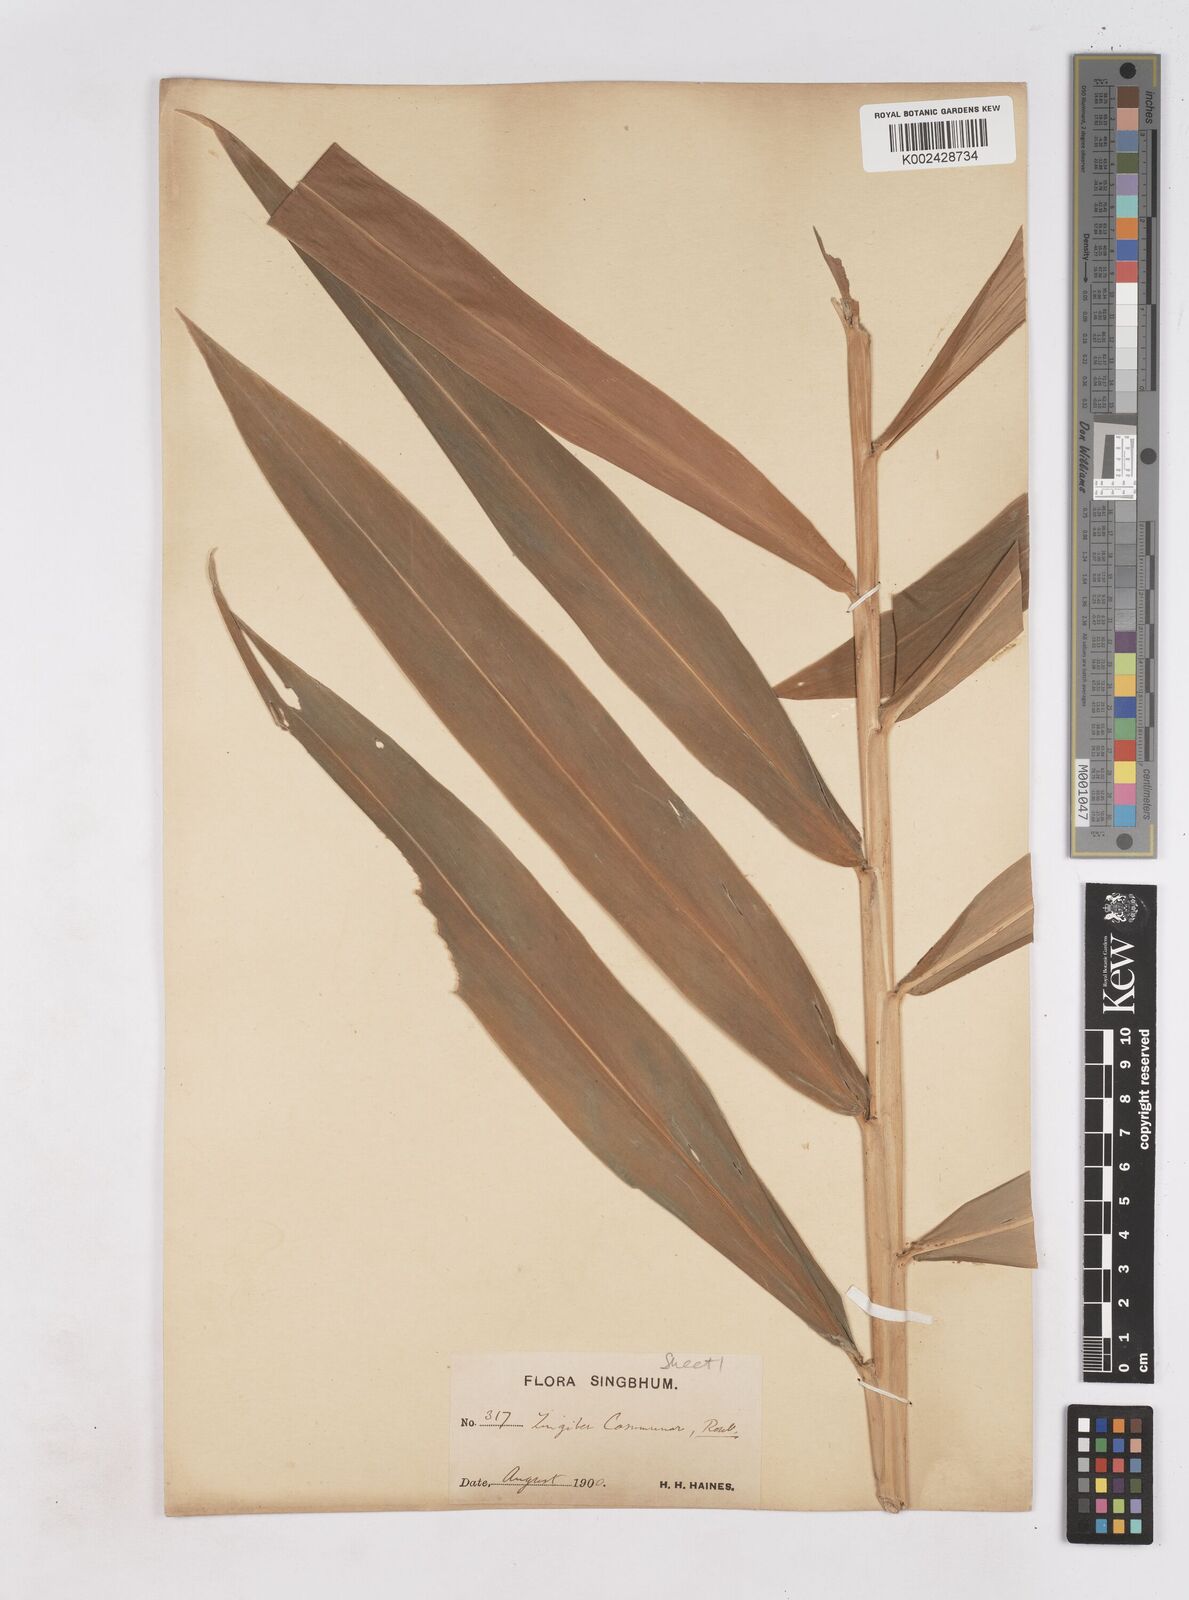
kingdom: Plantae
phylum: Tracheophyta
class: Liliopsida
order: Zingiberales
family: Zingiberaceae
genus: Zingiber
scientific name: Zingiber montanum
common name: Bengal ginger
